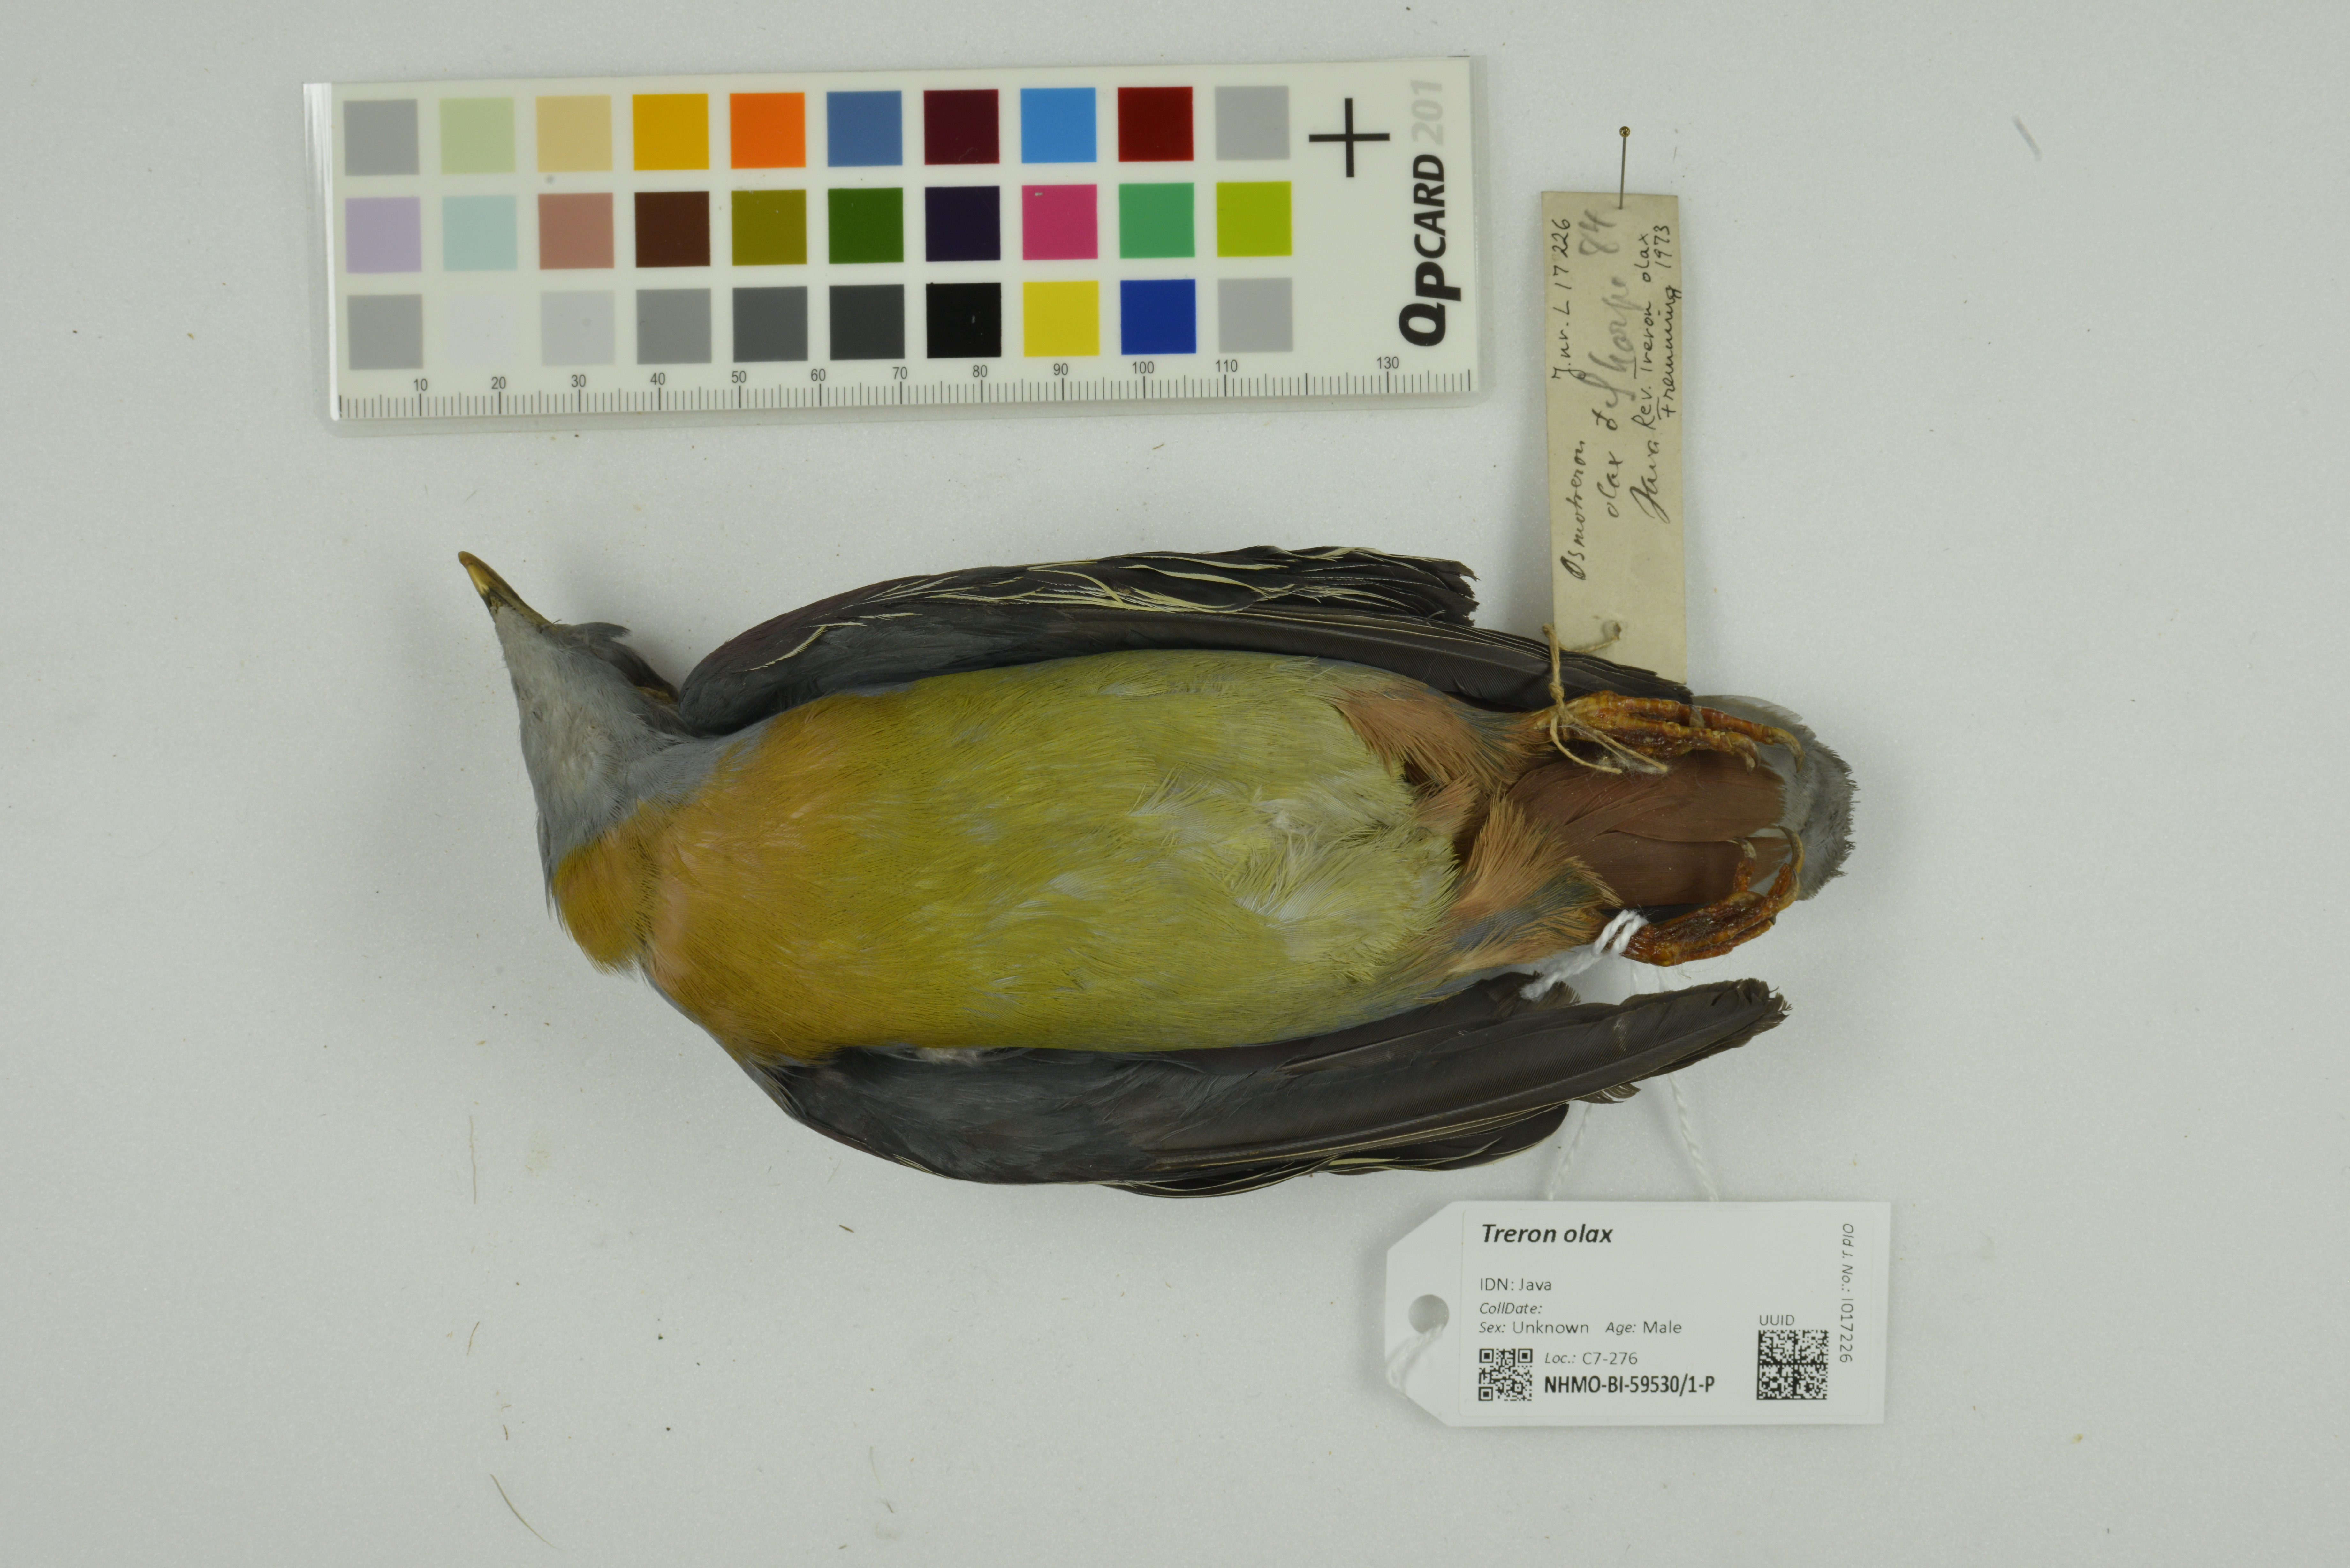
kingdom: Animalia
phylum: Chordata
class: Aves
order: Columbiformes
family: Columbidae
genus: Treron
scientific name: Treron olax
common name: Little green pigeon
